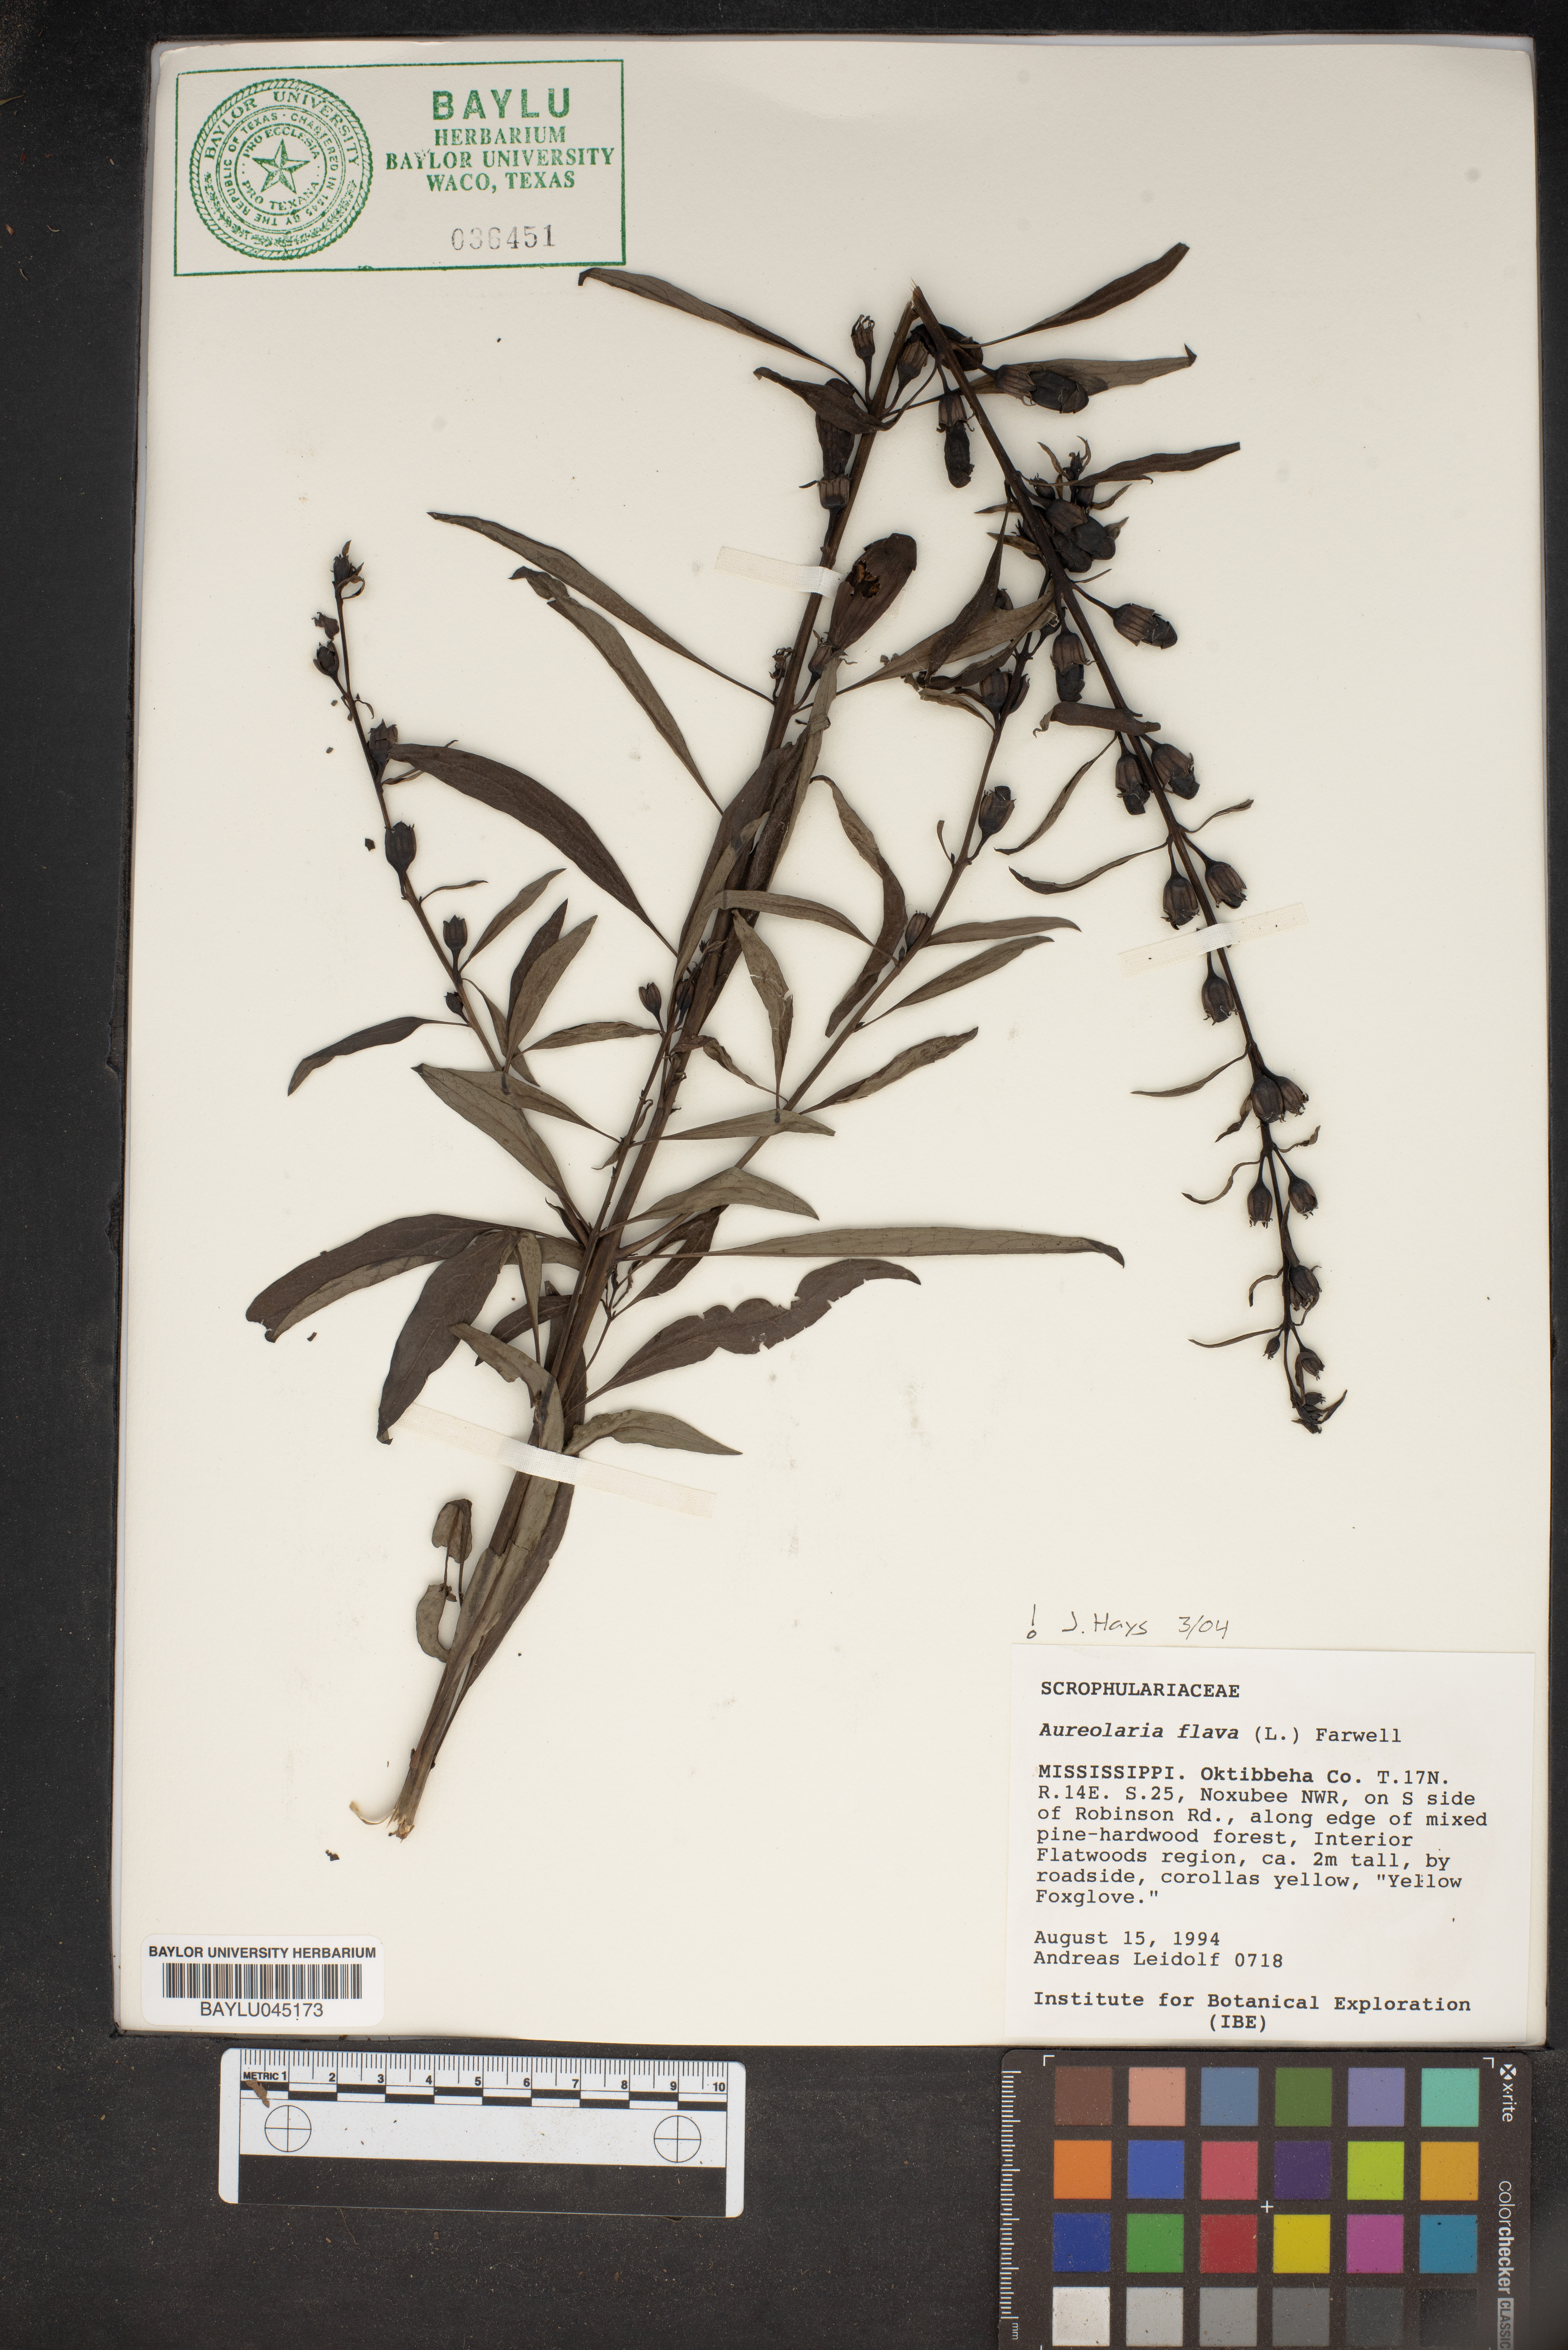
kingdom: Plantae
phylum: Tracheophyta
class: Magnoliopsida
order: Lamiales
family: Orobanchaceae
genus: Aureolaria
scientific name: Aureolaria flava
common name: Smooth false foxglove
